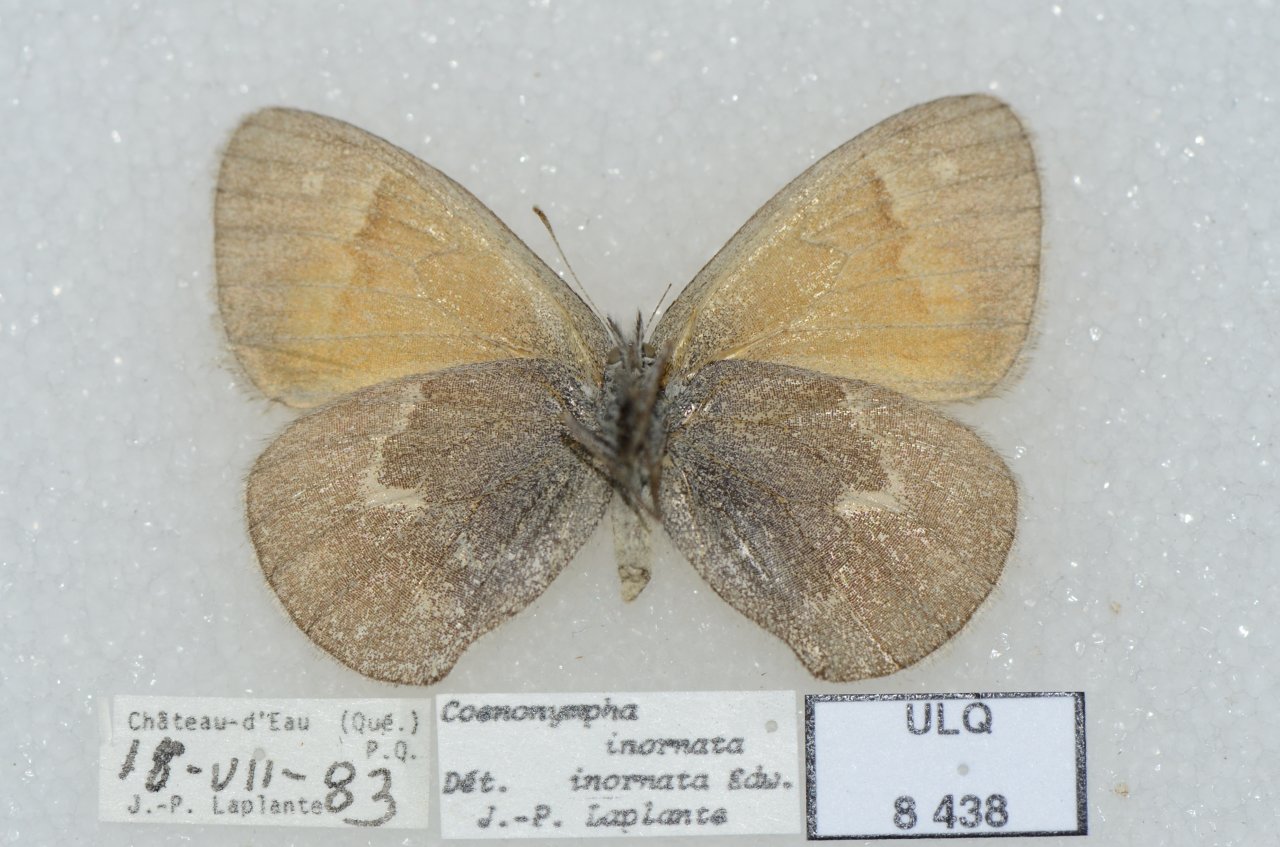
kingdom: Animalia
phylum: Arthropoda
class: Insecta
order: Lepidoptera
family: Nymphalidae
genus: Coenonympha
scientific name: Coenonympha tullia
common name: Large Heath
